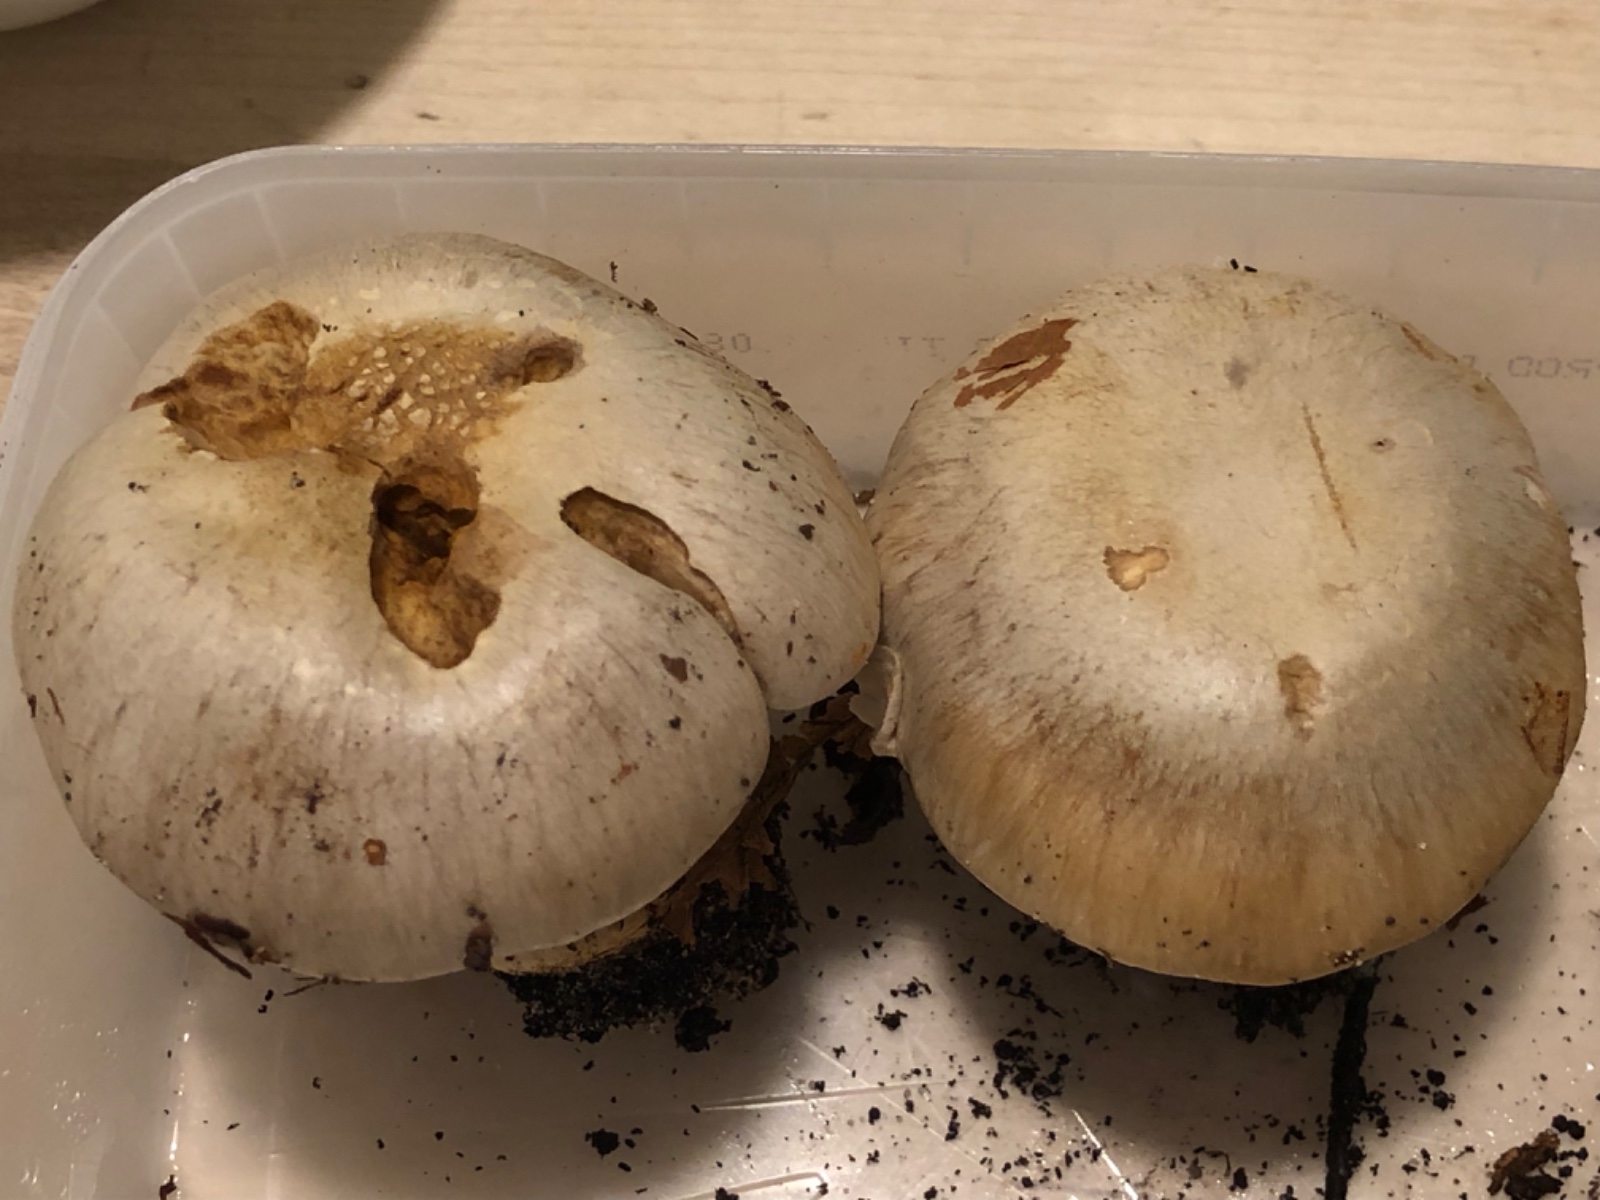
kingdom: Fungi
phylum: Basidiomycota
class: Agaricomycetes
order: Agaricales
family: Cortinariaceae
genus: Cortinarius
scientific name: Cortinarius foetens
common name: stribet slørhat
